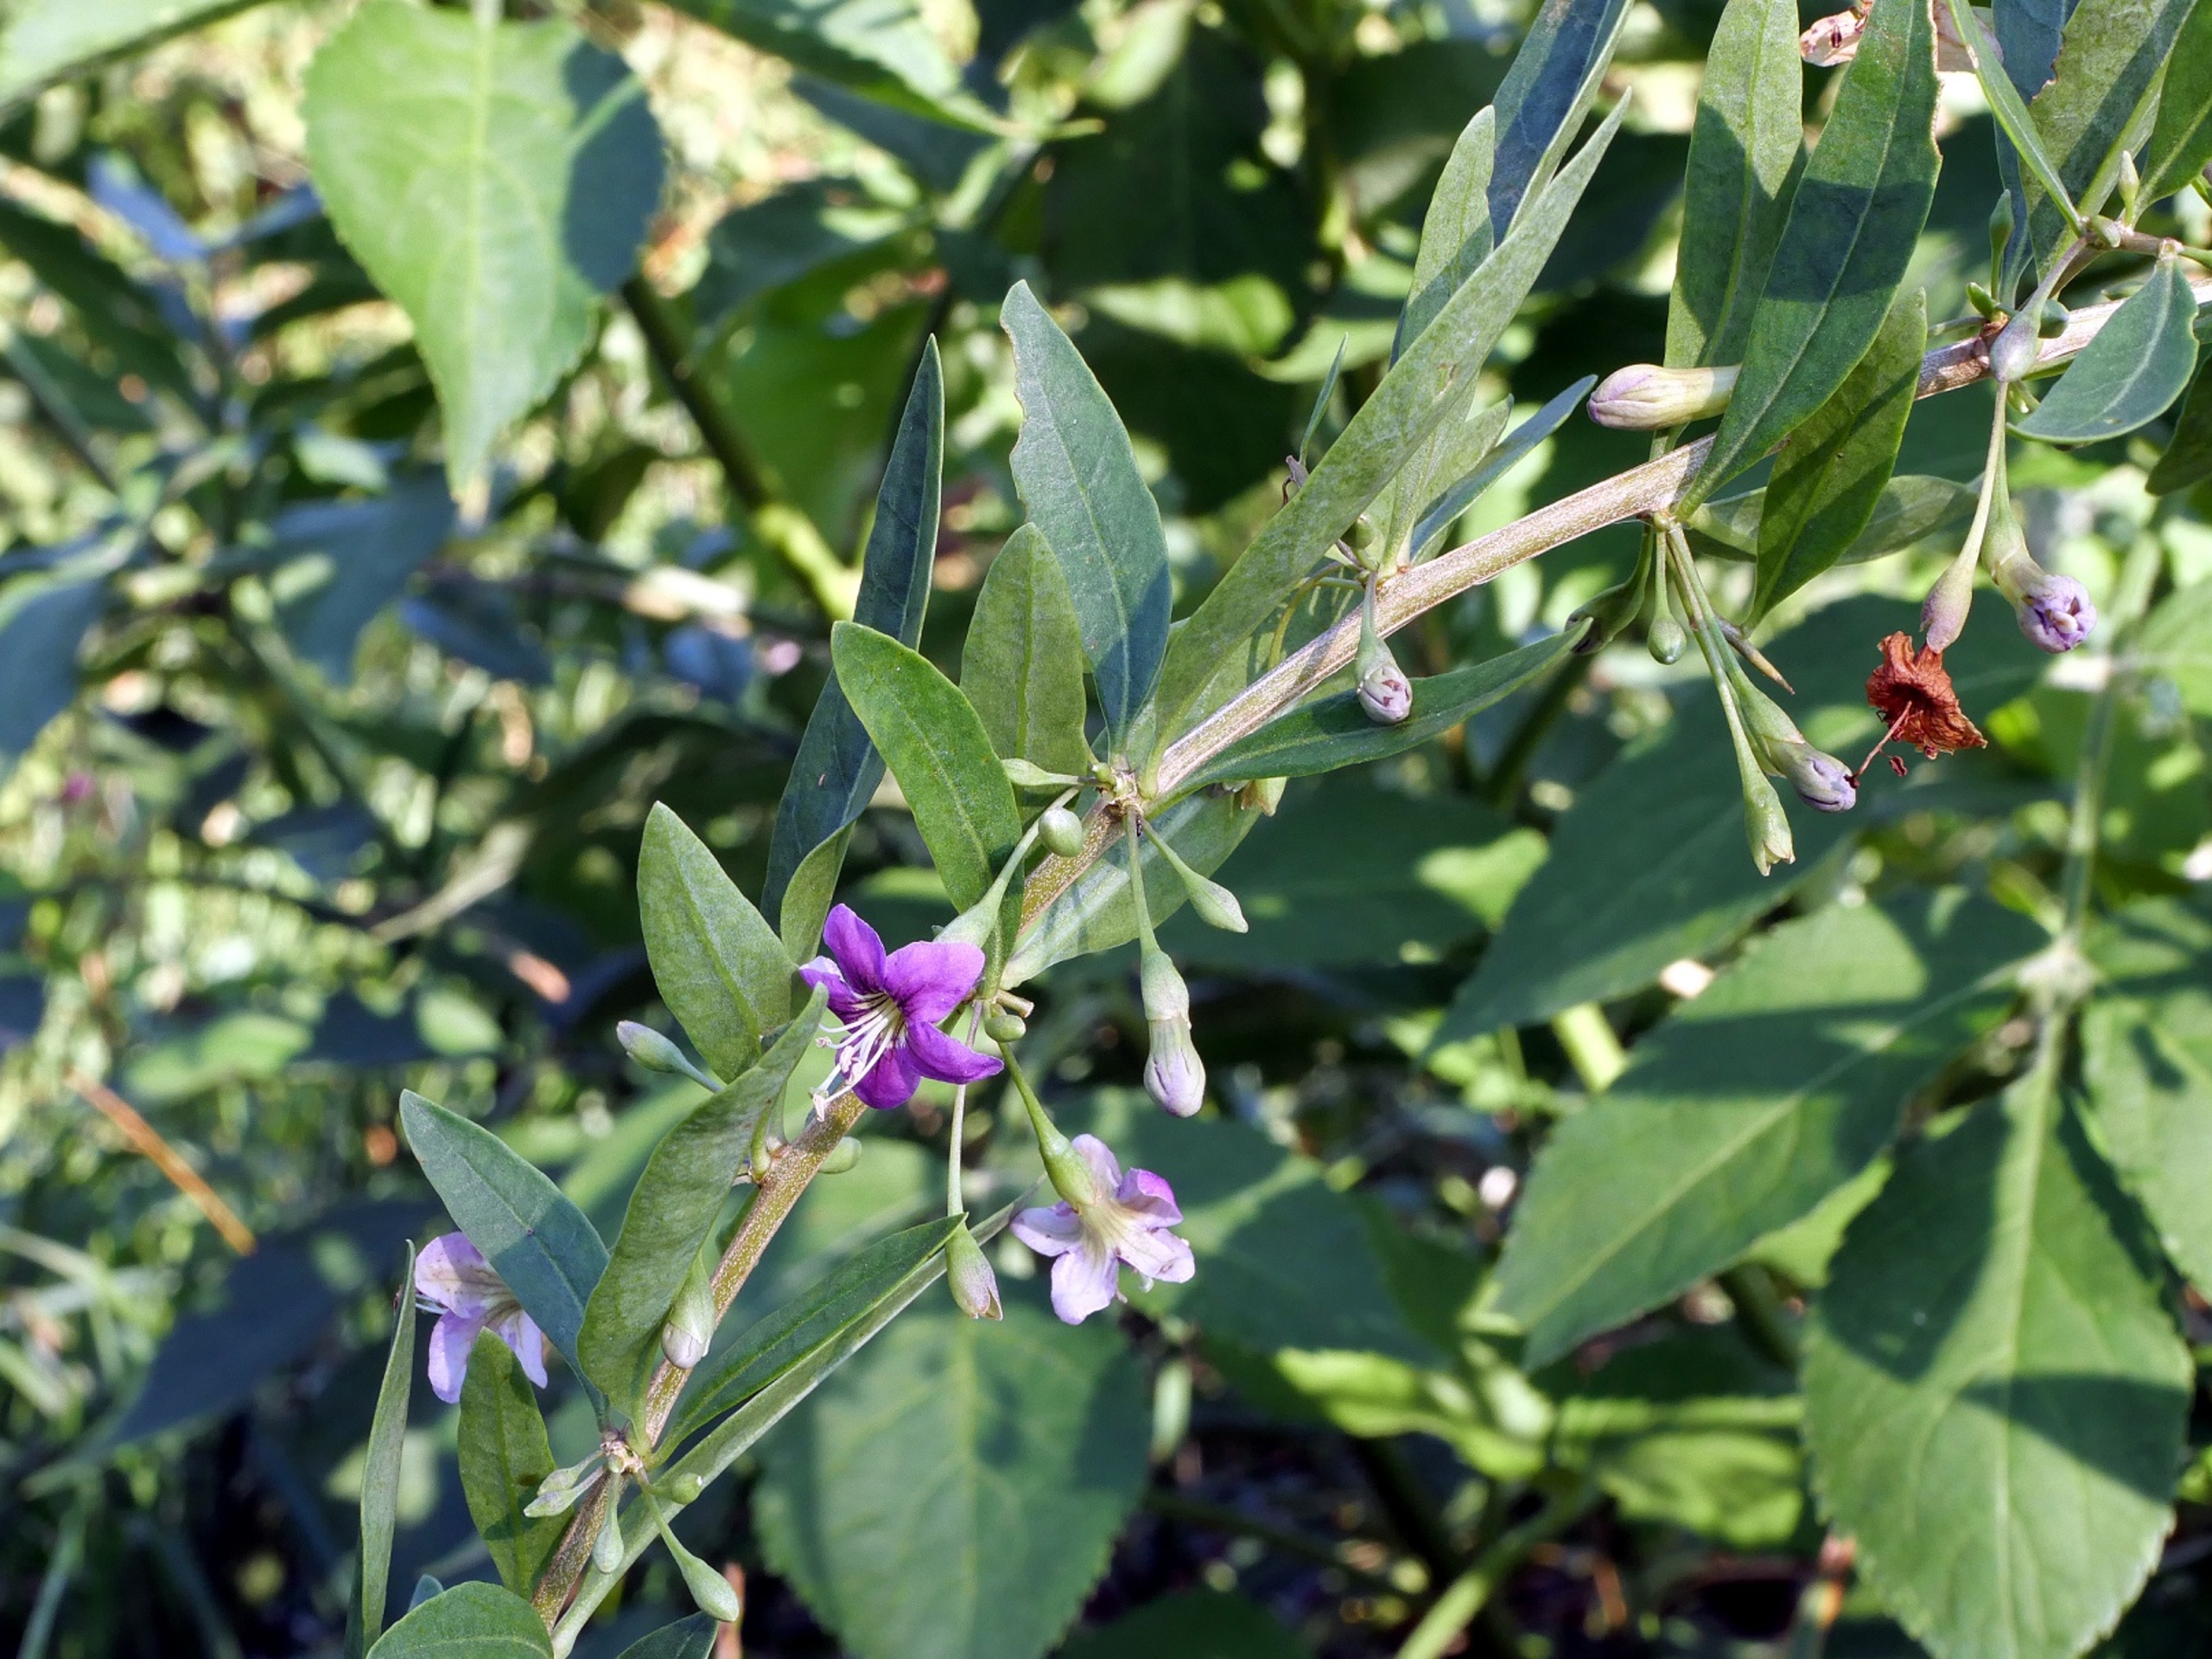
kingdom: Plantae
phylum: Tracheophyta
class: Magnoliopsida
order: Solanales
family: Solanaceae
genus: Lycium
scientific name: Lycium barbarum
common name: Bukketorn
